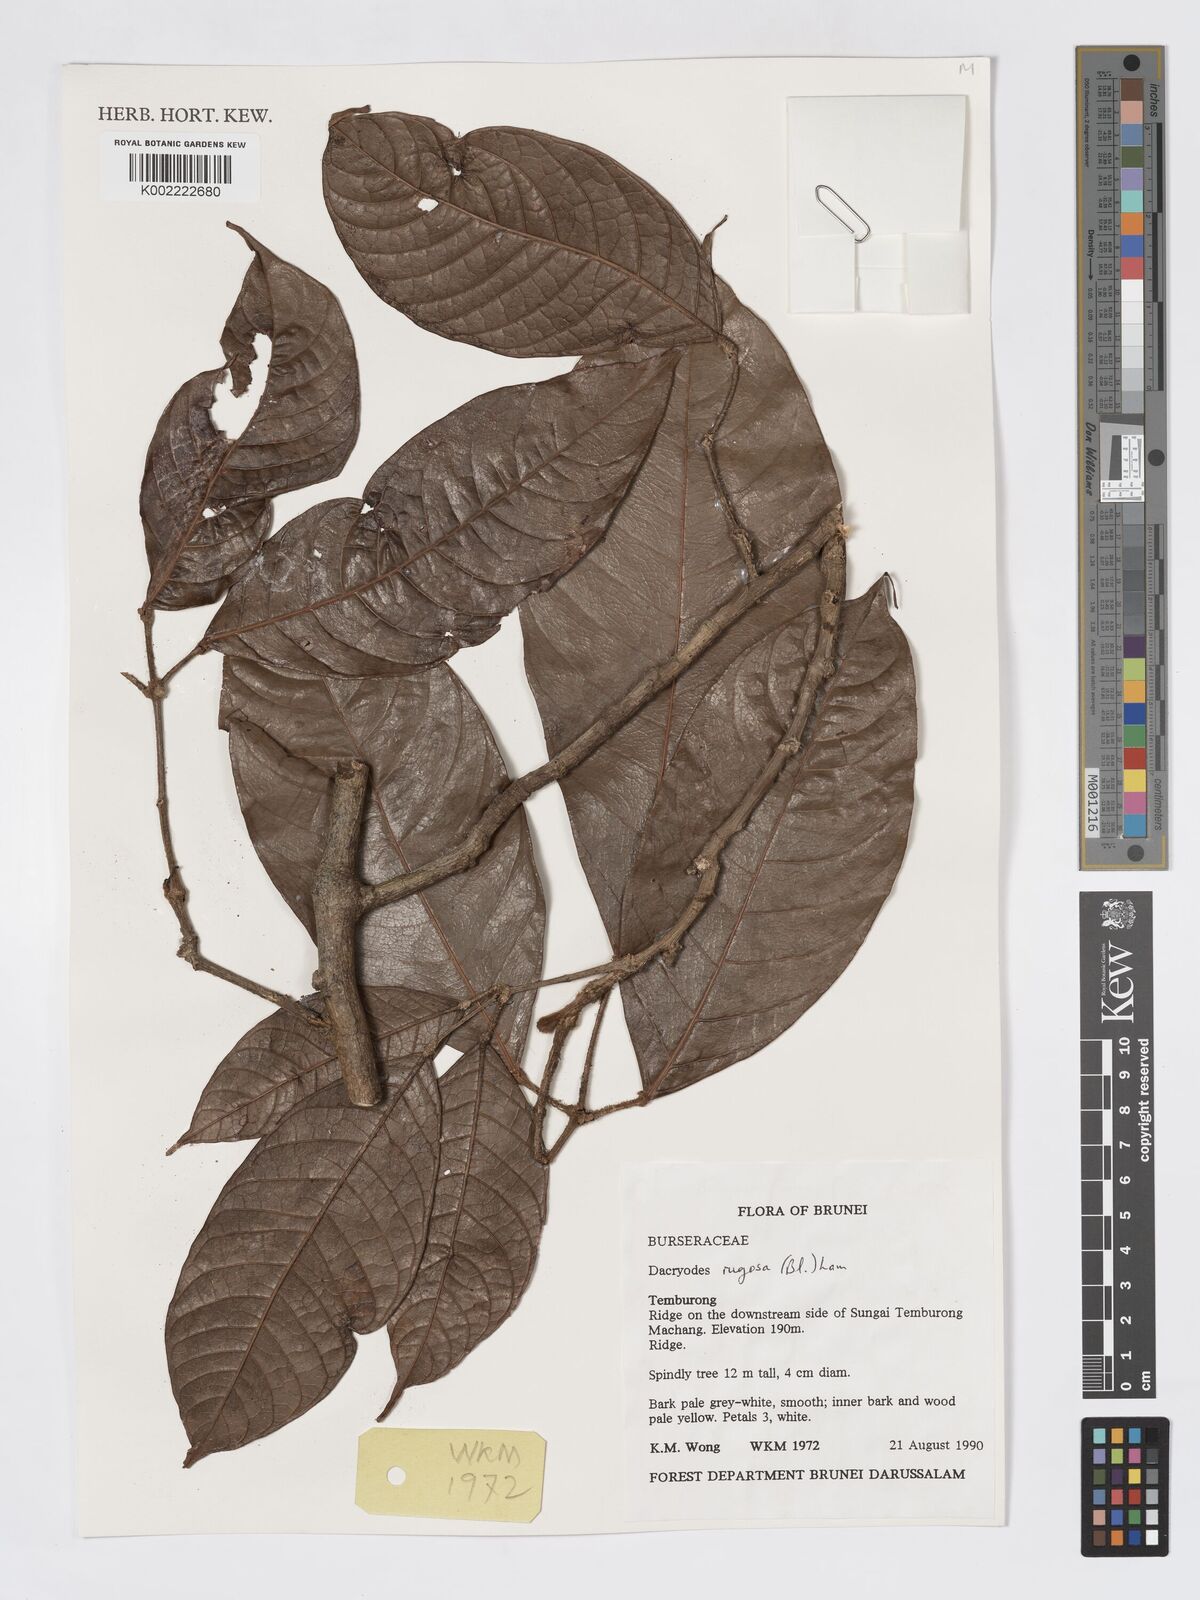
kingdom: Plantae
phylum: Tracheophyta
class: Magnoliopsida
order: Sapindales
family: Burseraceae
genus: Dacryodes
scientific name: Dacryodes rugosa
